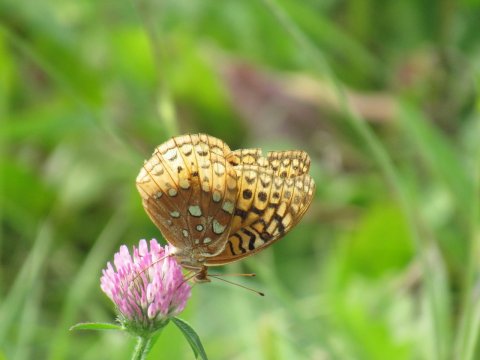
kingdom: Animalia
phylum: Arthropoda
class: Insecta
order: Lepidoptera
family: Nymphalidae
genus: Speyeria
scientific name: Speyeria cybele
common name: Great Spangled Fritillary
